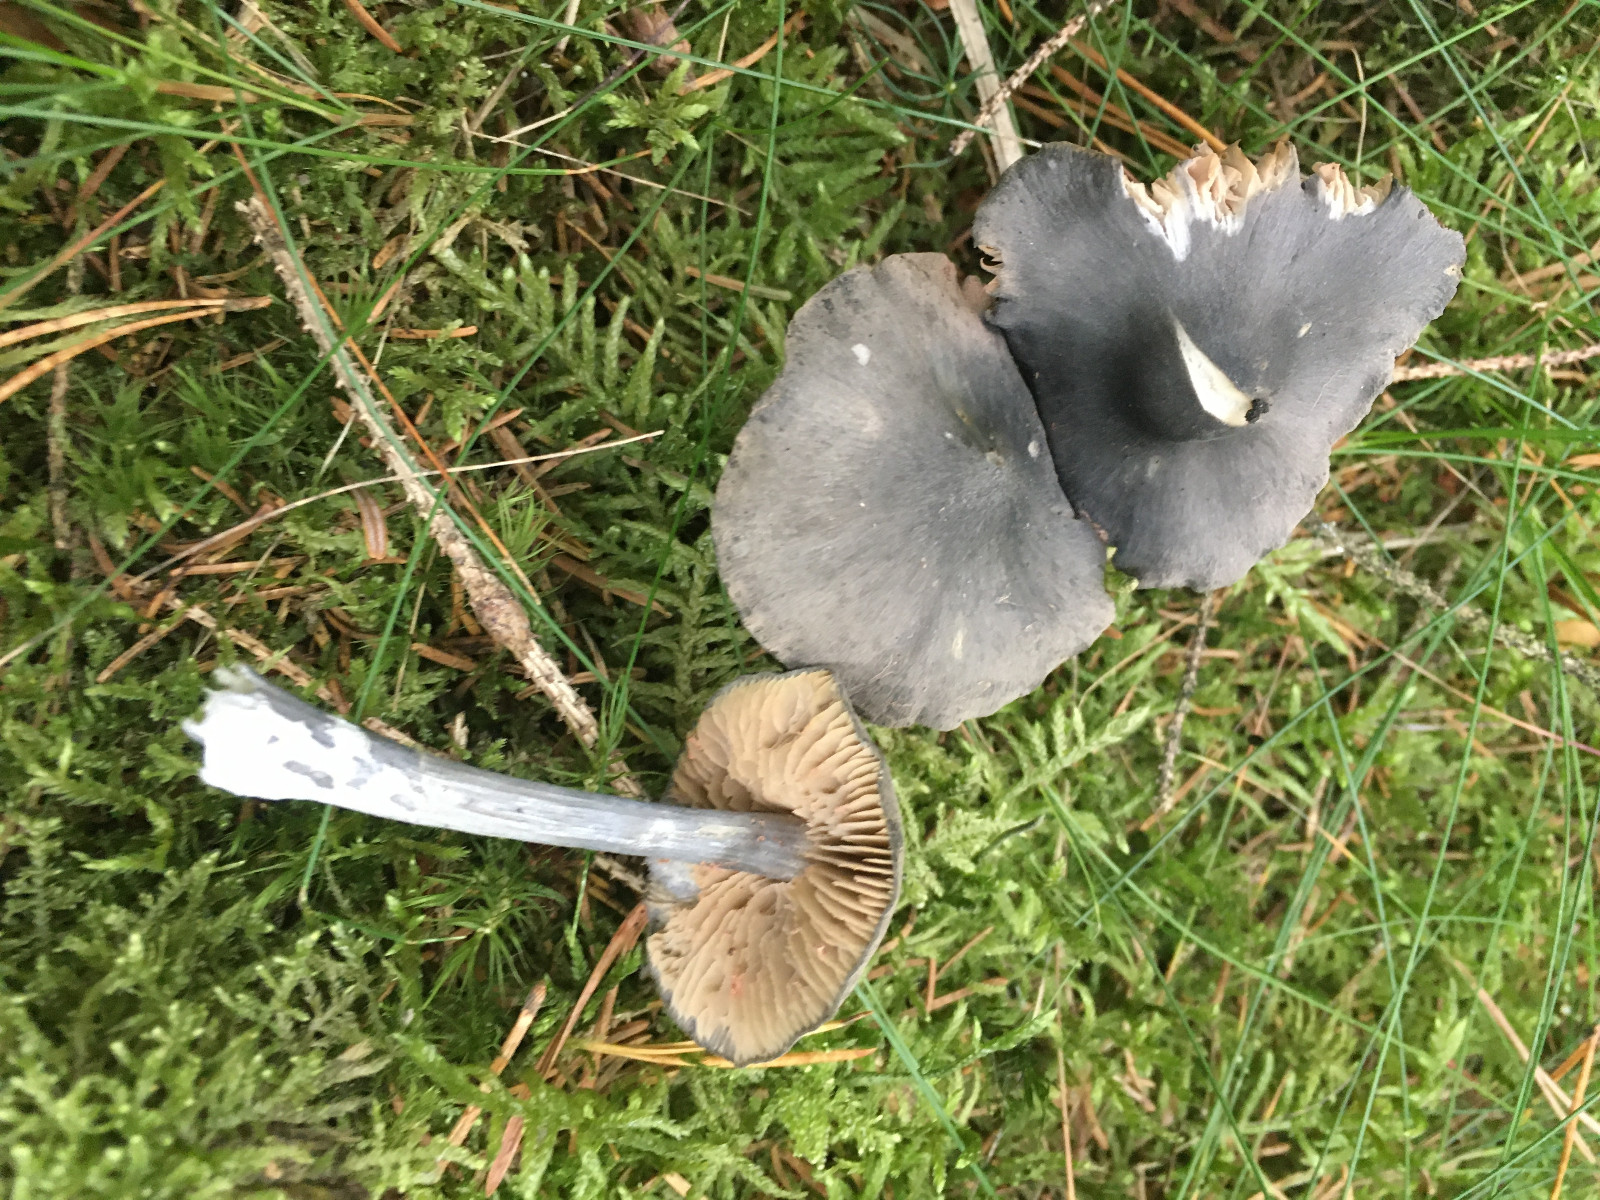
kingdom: Fungi
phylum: Basidiomycota
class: Agaricomycetes
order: Agaricales
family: Entolomataceae
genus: Entocybe
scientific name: Entocybe nitida
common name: stålblå rødblad
